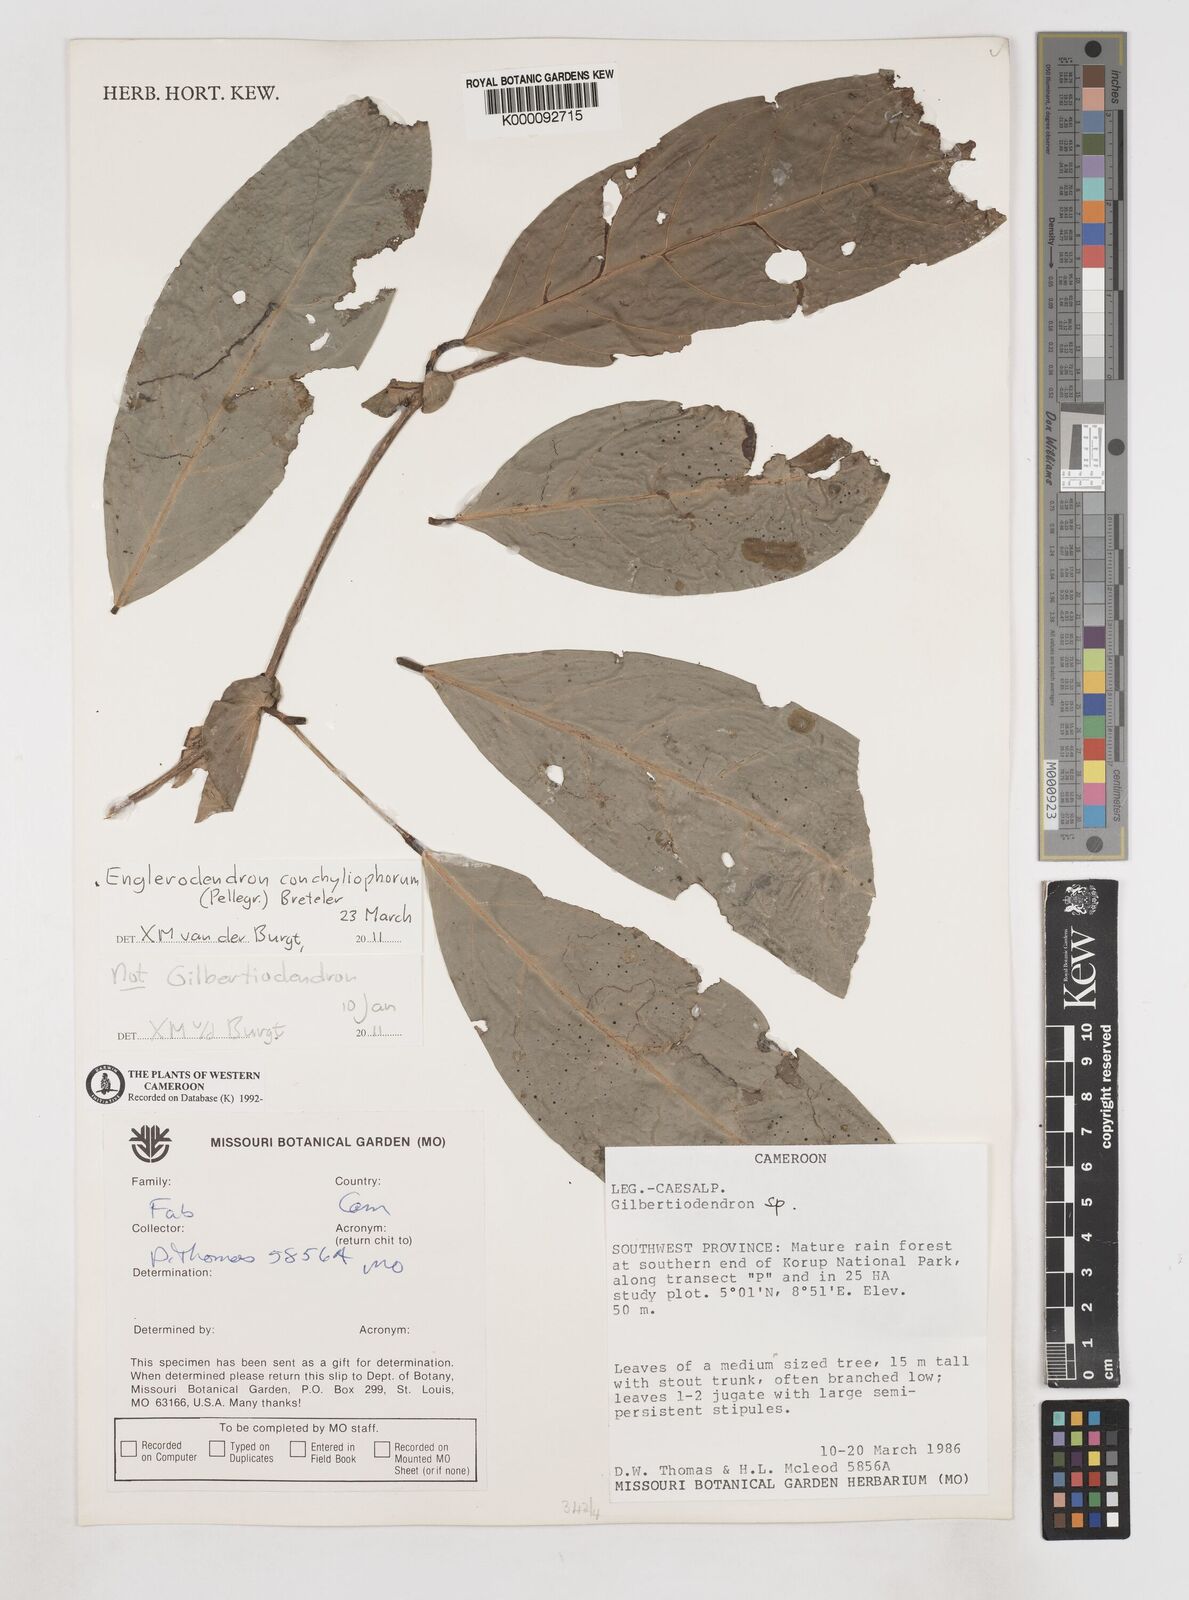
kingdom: Plantae
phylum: Tracheophyta
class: Magnoliopsida
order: Fabales
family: Fabaceae
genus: Englerodendron
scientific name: Englerodendron conchyliophorum
